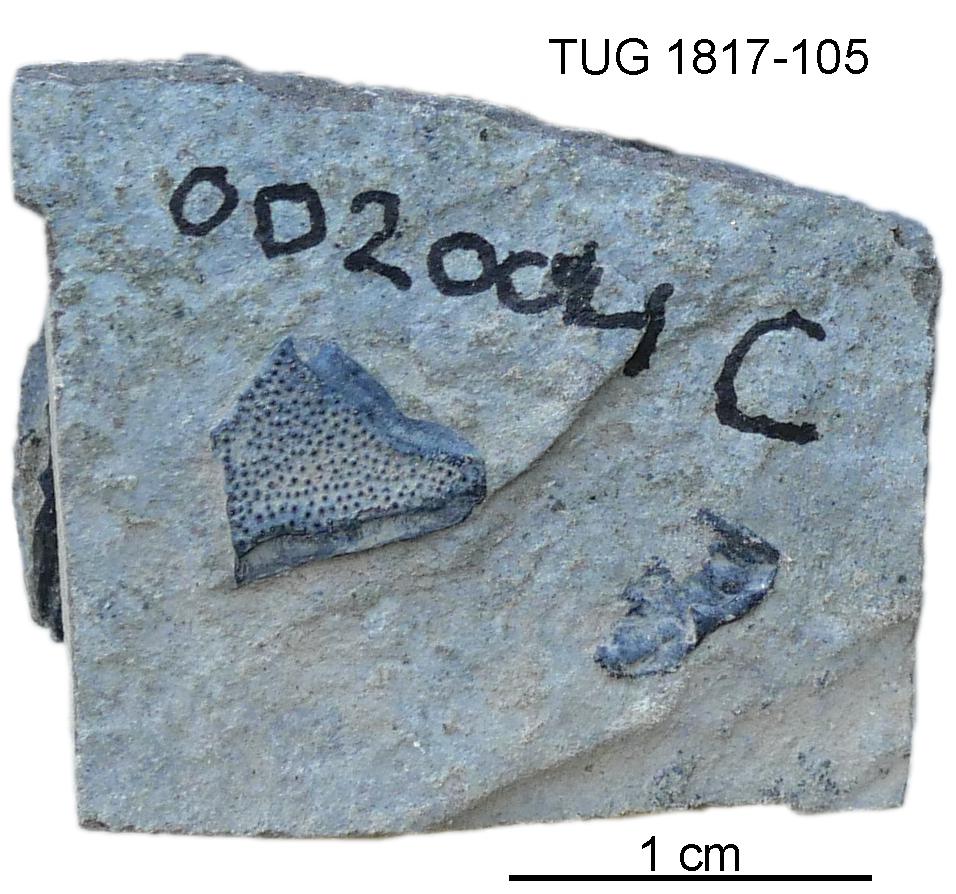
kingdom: Animalia
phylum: Chordata
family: Coccosteidae
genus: Millerosteus
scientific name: Millerosteus minor
